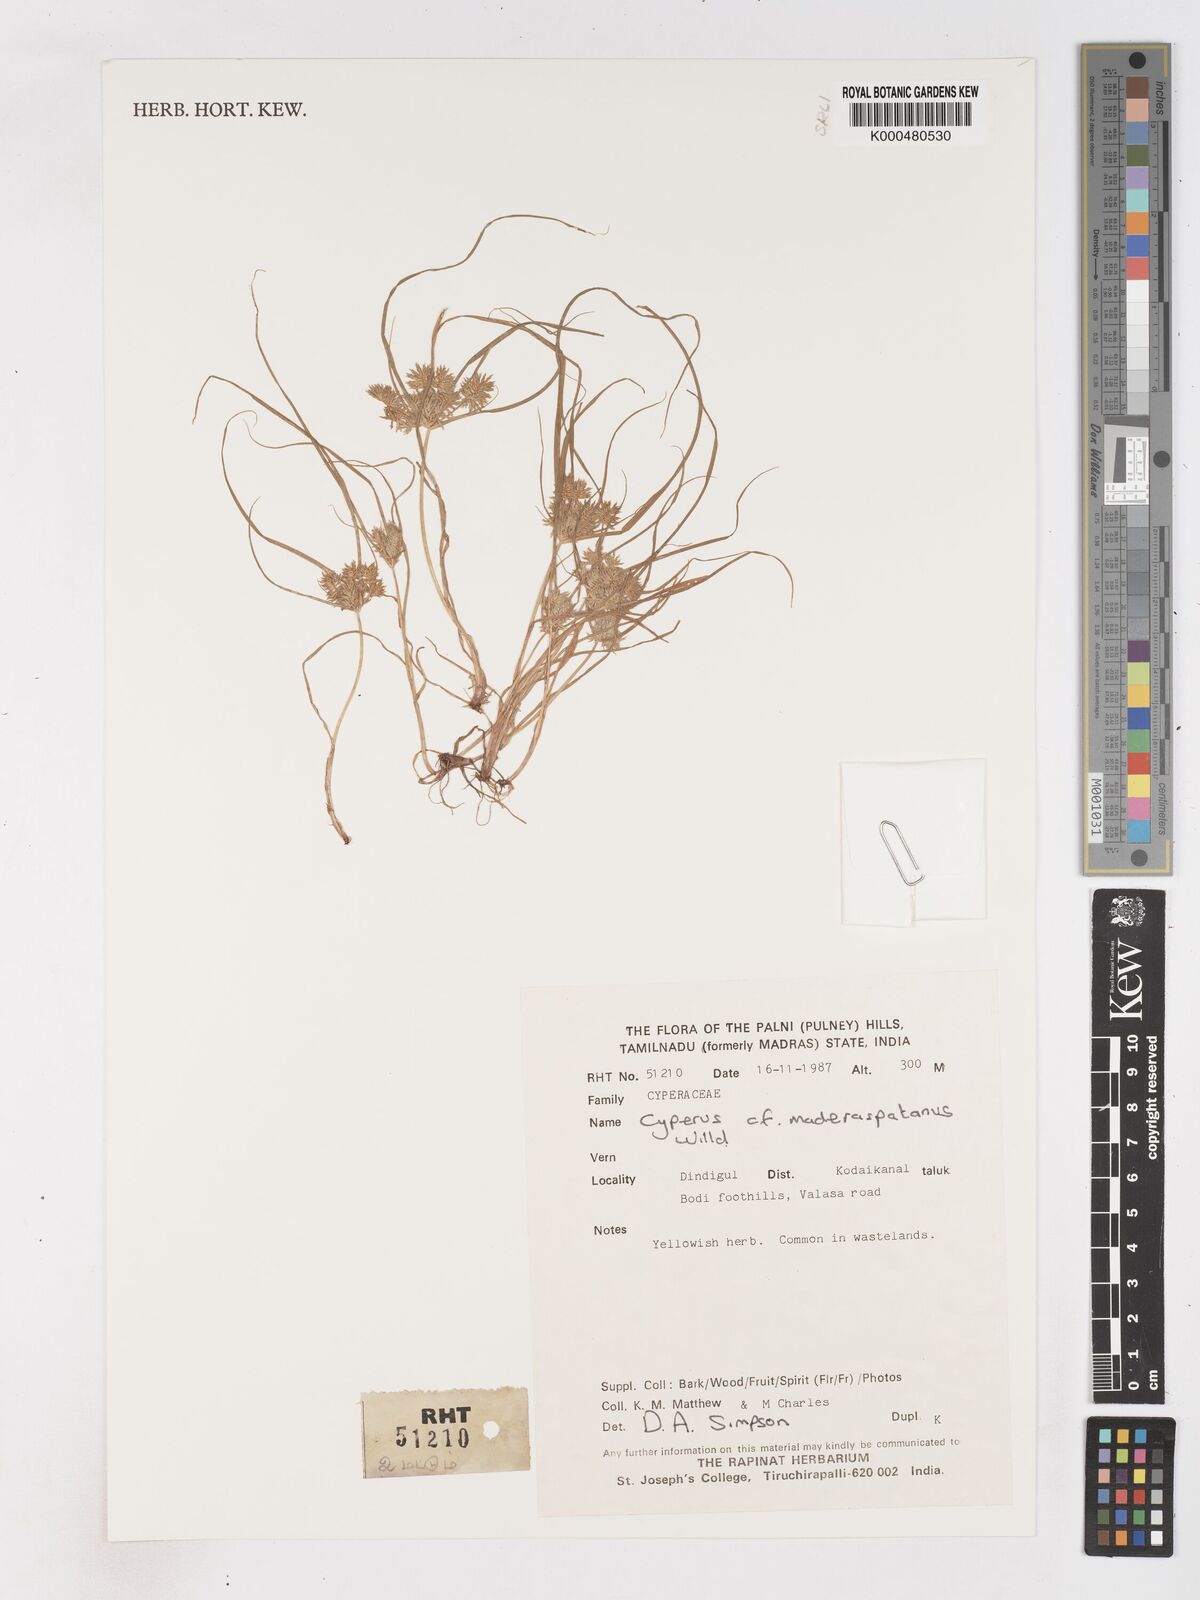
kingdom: Plantae
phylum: Tracheophyta
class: Liliopsida
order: Poales
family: Cyperaceae
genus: Cyperus
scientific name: Cyperus maderaspatanus
